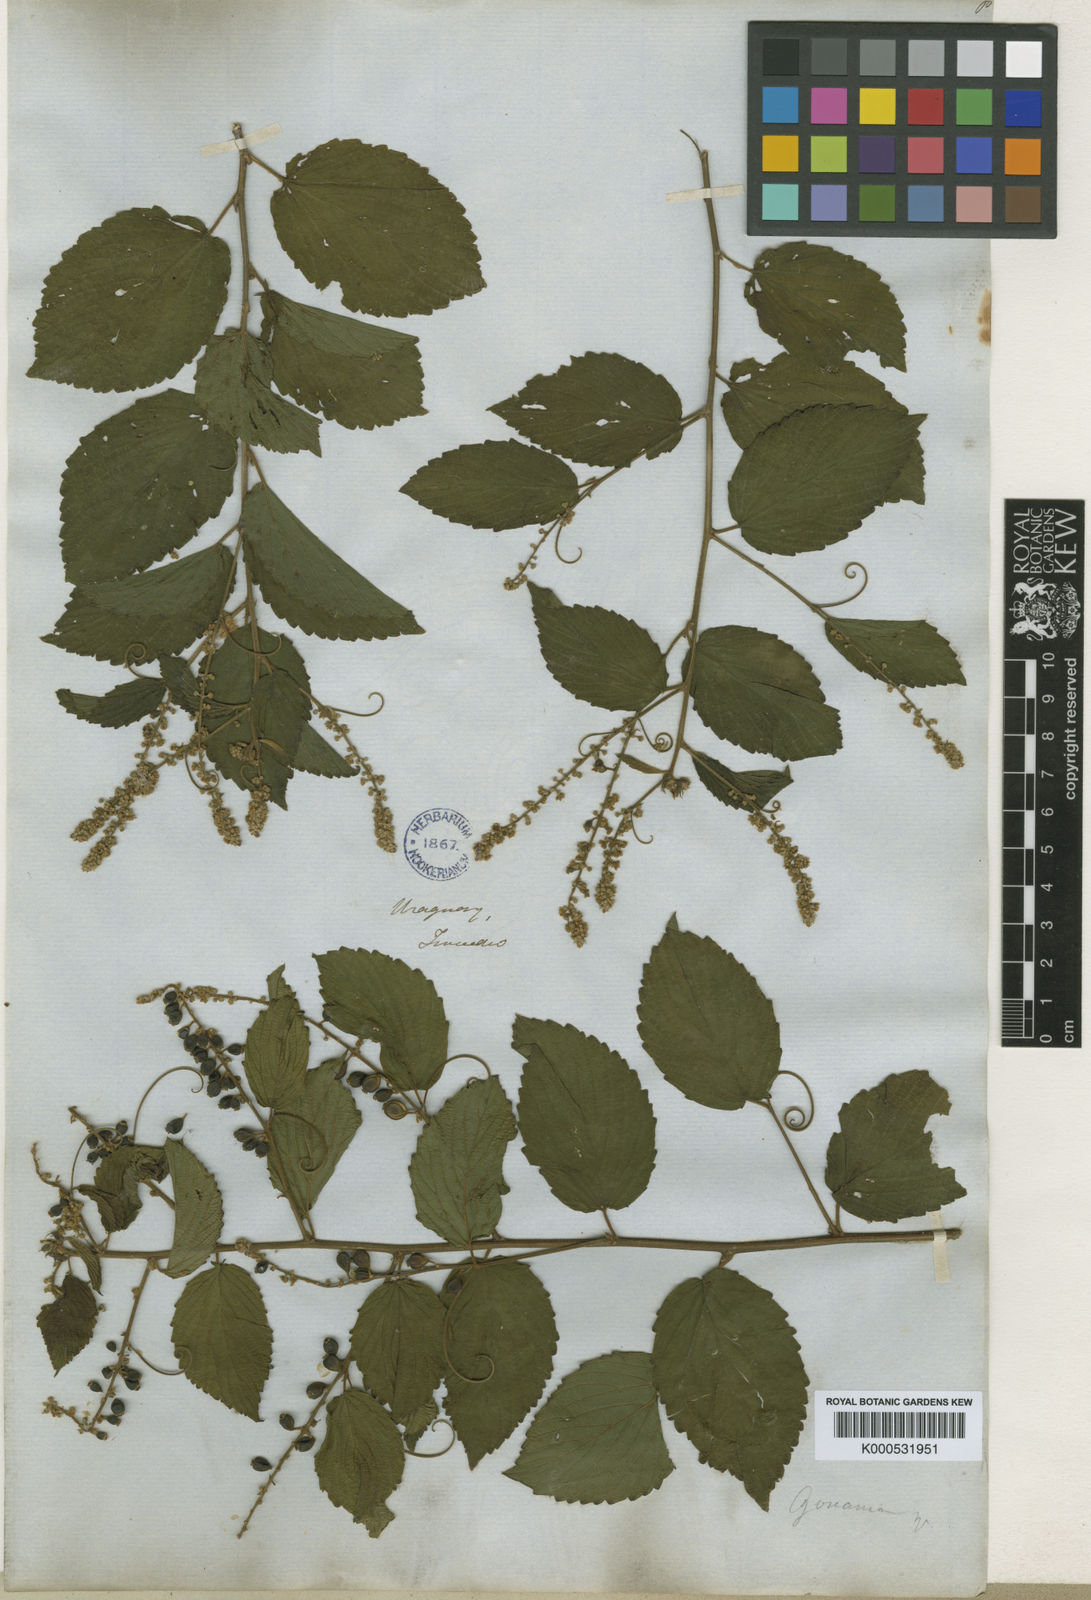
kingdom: Plantae
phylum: Tracheophyta
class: Magnoliopsida
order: Rosales
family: Rhamnaceae
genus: Gouania
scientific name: Gouania ulmifolia
